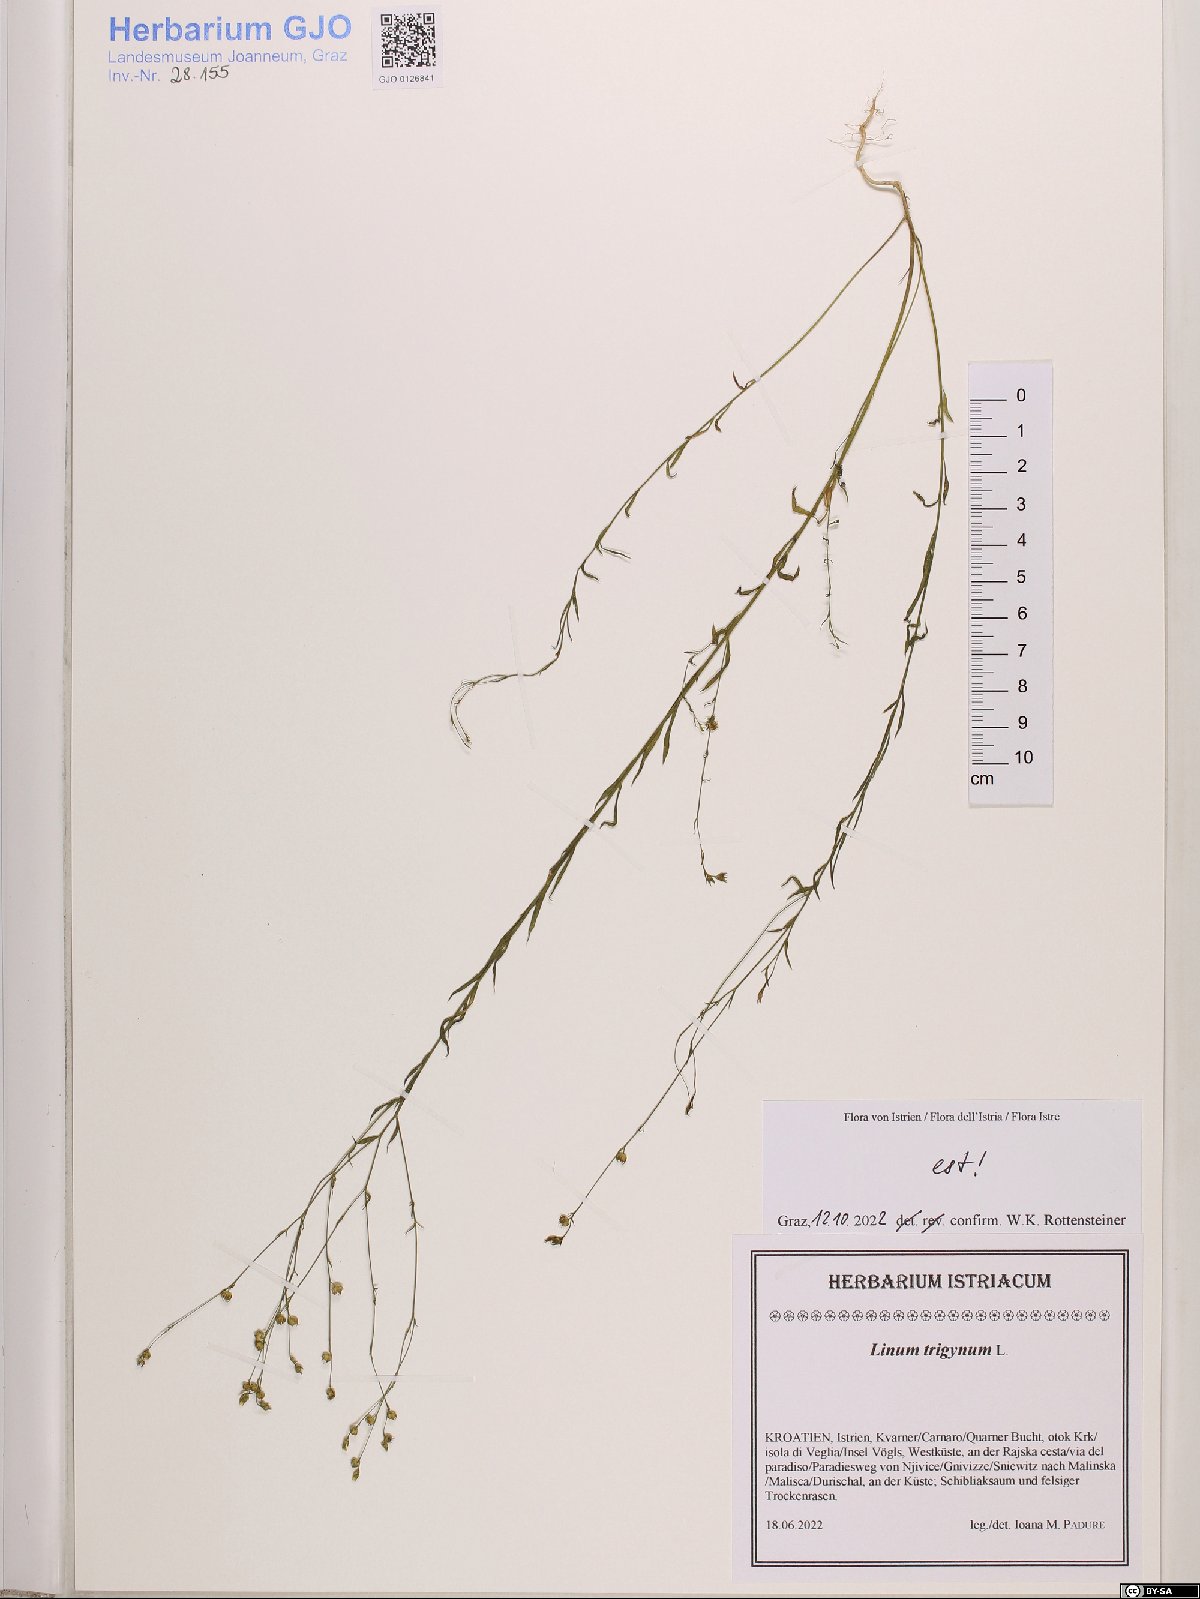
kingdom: Plantae
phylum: Tracheophyta
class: Magnoliopsida
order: Malpighiales
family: Linaceae
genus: Linum
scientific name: Linum trigynum
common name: French flax
